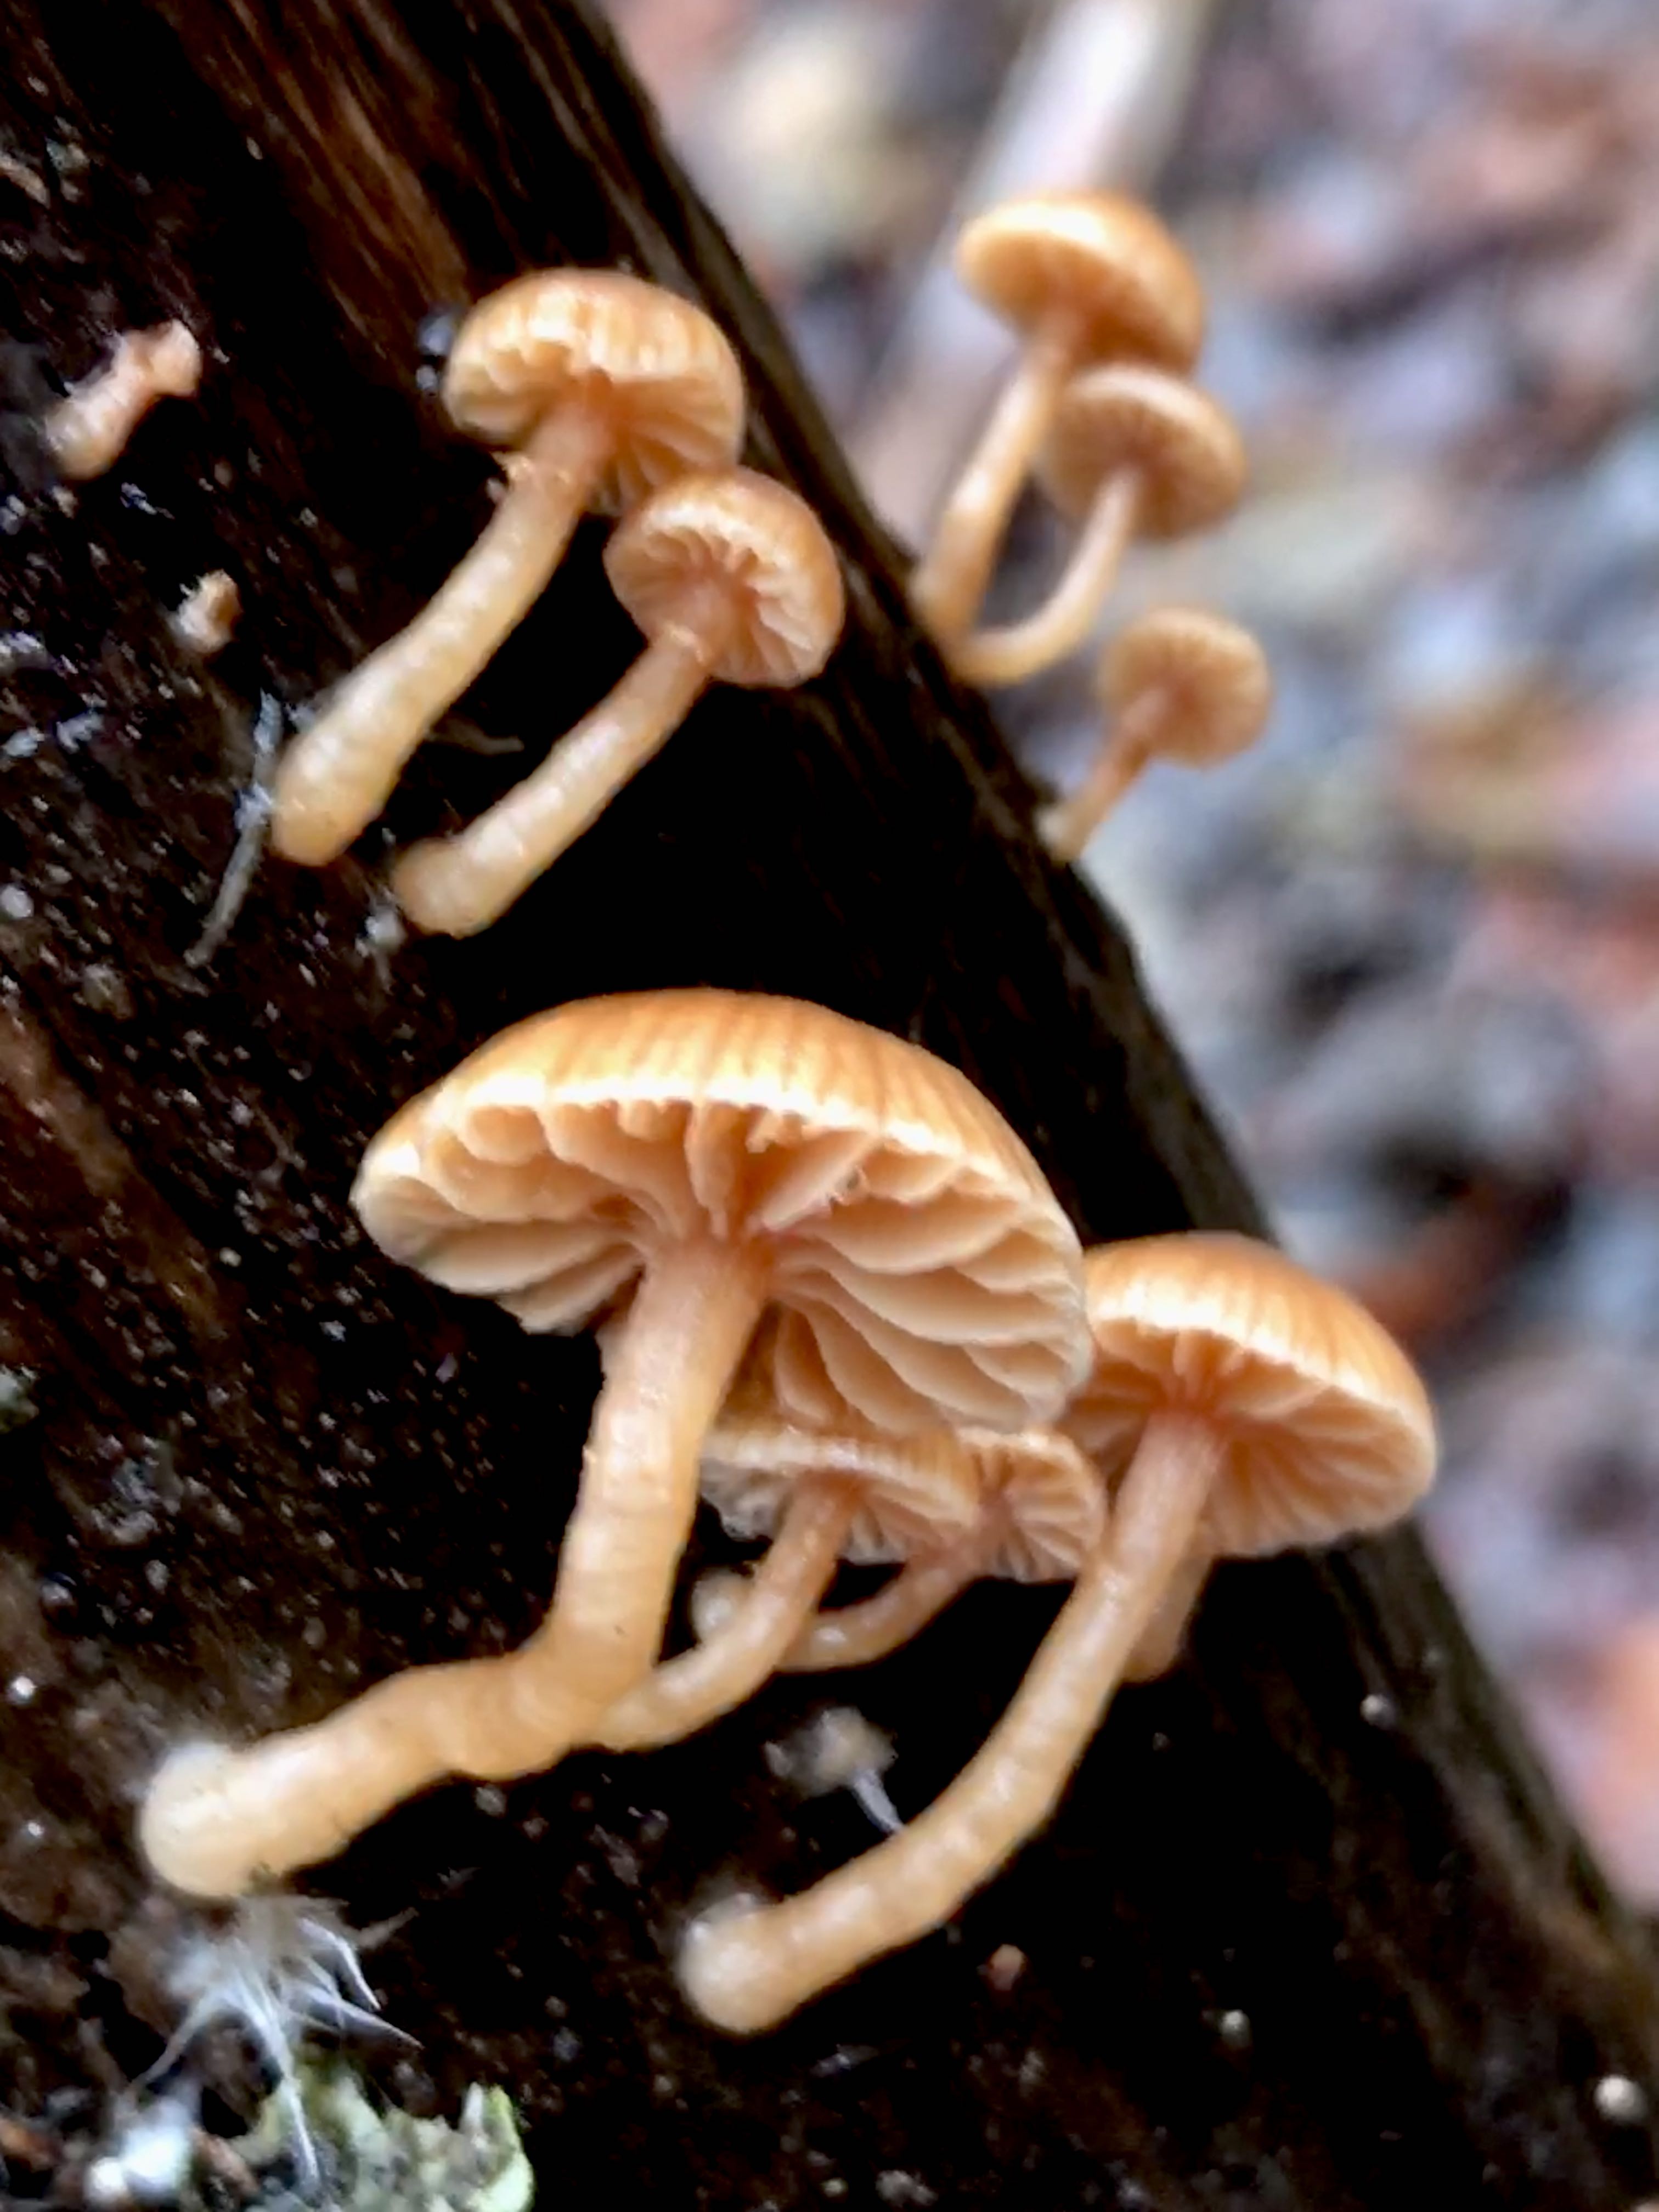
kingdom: Fungi
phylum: Basidiomycota
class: Agaricomycetes
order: Agaricales
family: Tubariaceae
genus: Tubaria
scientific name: Tubaria furfuracea
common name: kliddet fnughat
